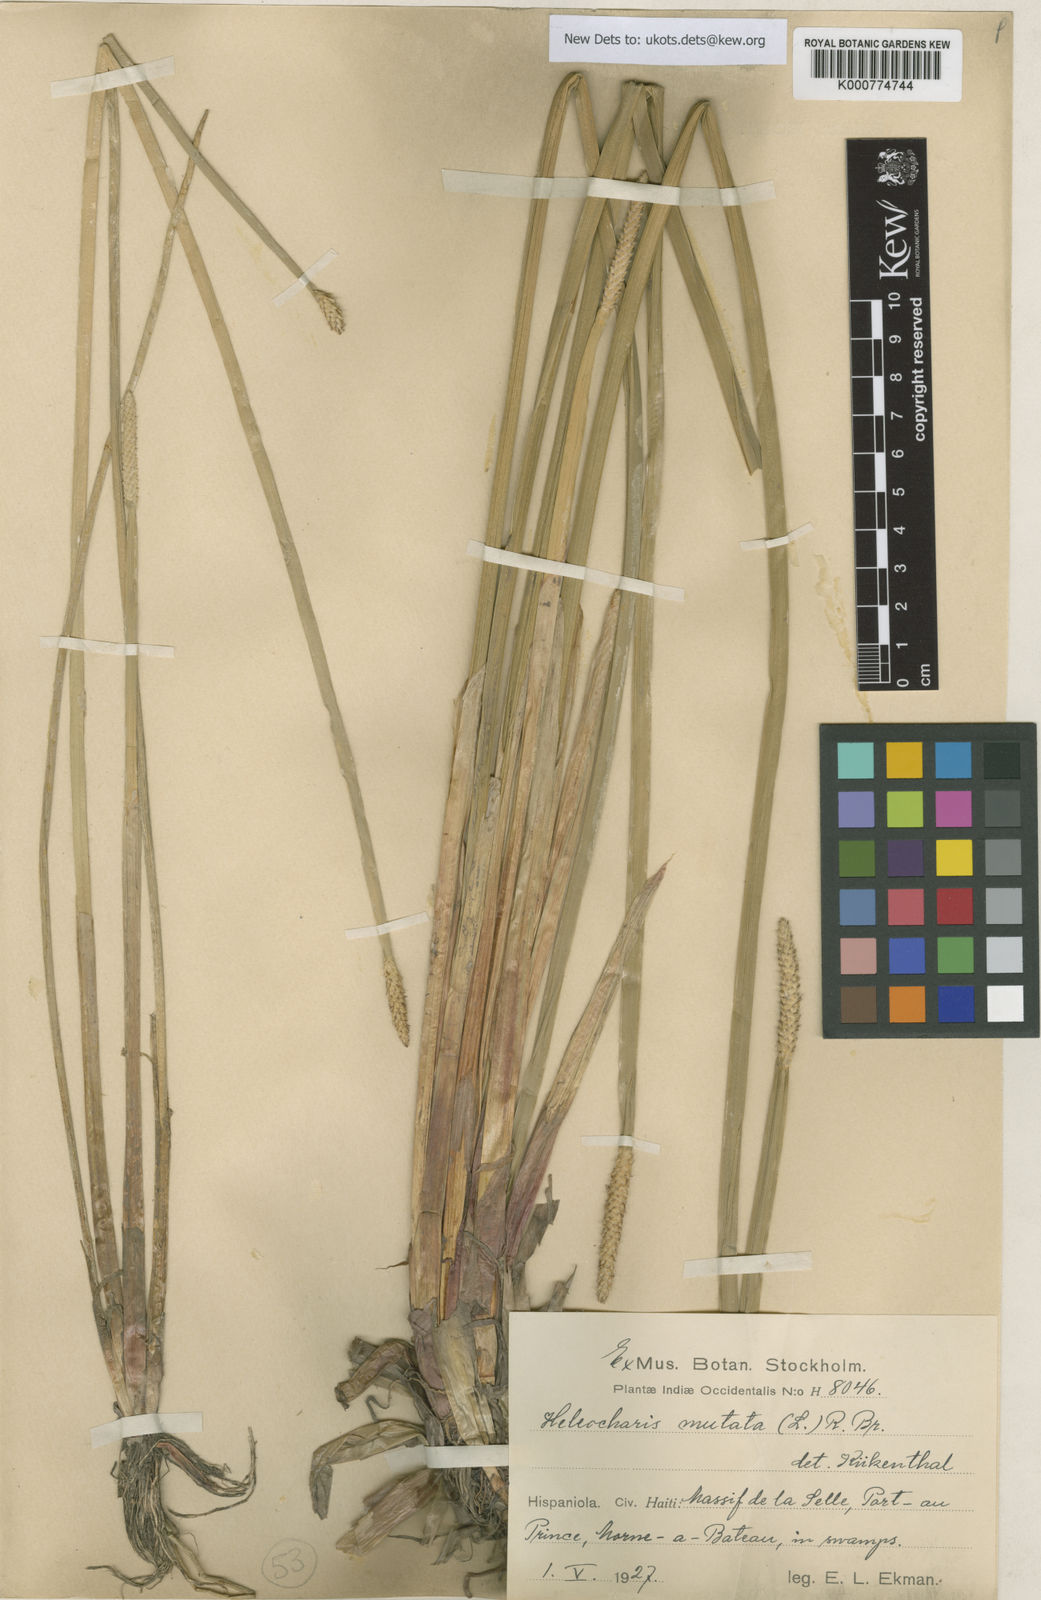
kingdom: Plantae
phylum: Tracheophyta
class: Liliopsida
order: Poales
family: Cyperaceae
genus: Eleocharis
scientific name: Eleocharis mutata
